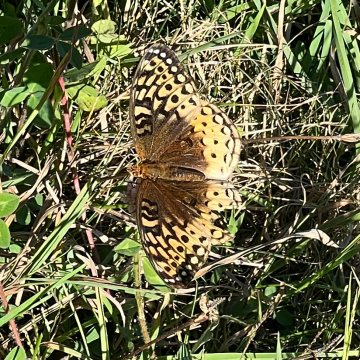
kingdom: Animalia
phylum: Arthropoda
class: Insecta
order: Lepidoptera
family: Nymphalidae
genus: Speyeria
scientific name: Speyeria cybele
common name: Great Spangled Fritillary
